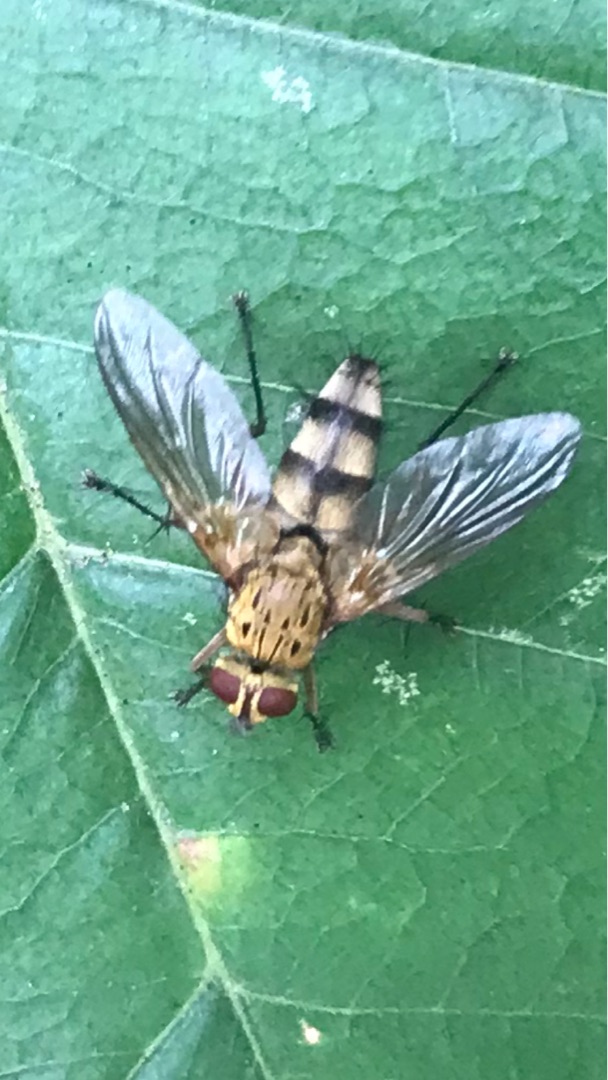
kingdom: Animalia
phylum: Arthropoda
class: Insecta
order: Diptera
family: Tachinidae
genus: Dexiosoma
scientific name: Dexiosoma caninum
